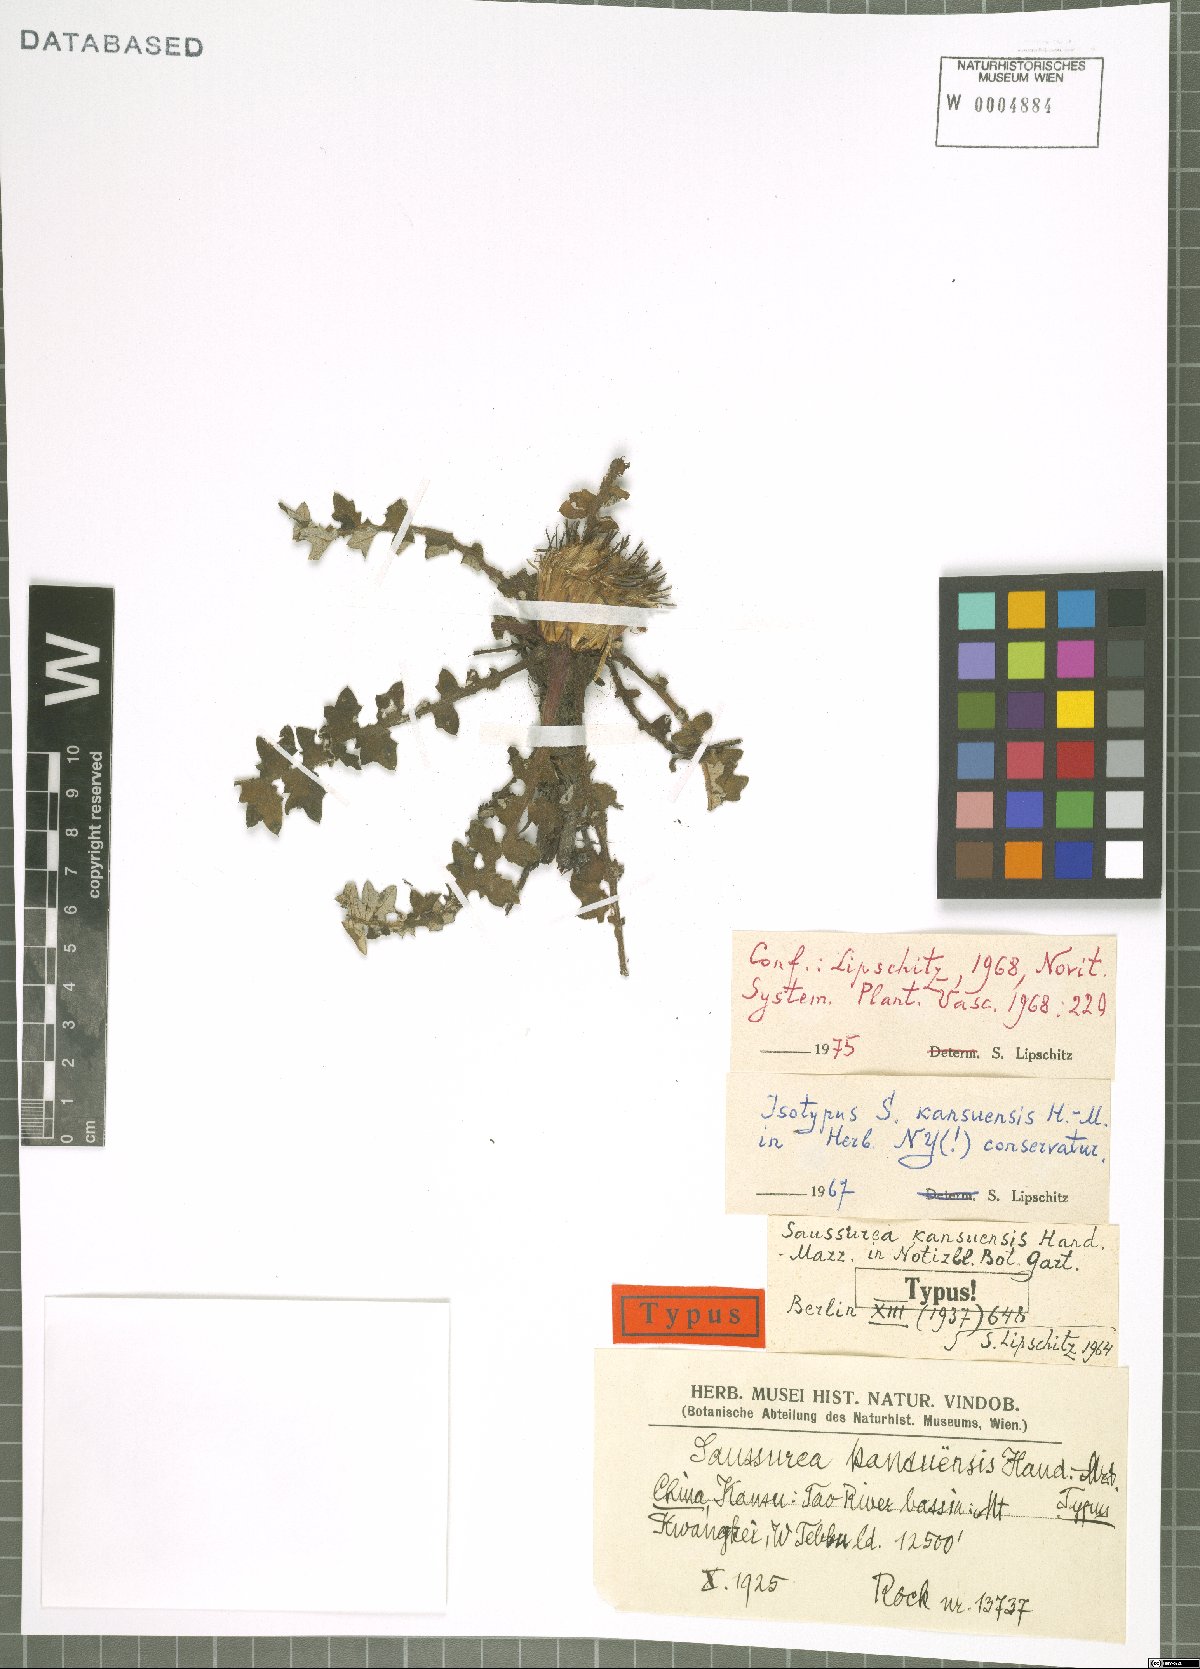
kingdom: Plantae
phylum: Tracheophyta
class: Magnoliopsida
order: Asterales
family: Asteraceae
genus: Saussurea
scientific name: Saussurea kansuensis
